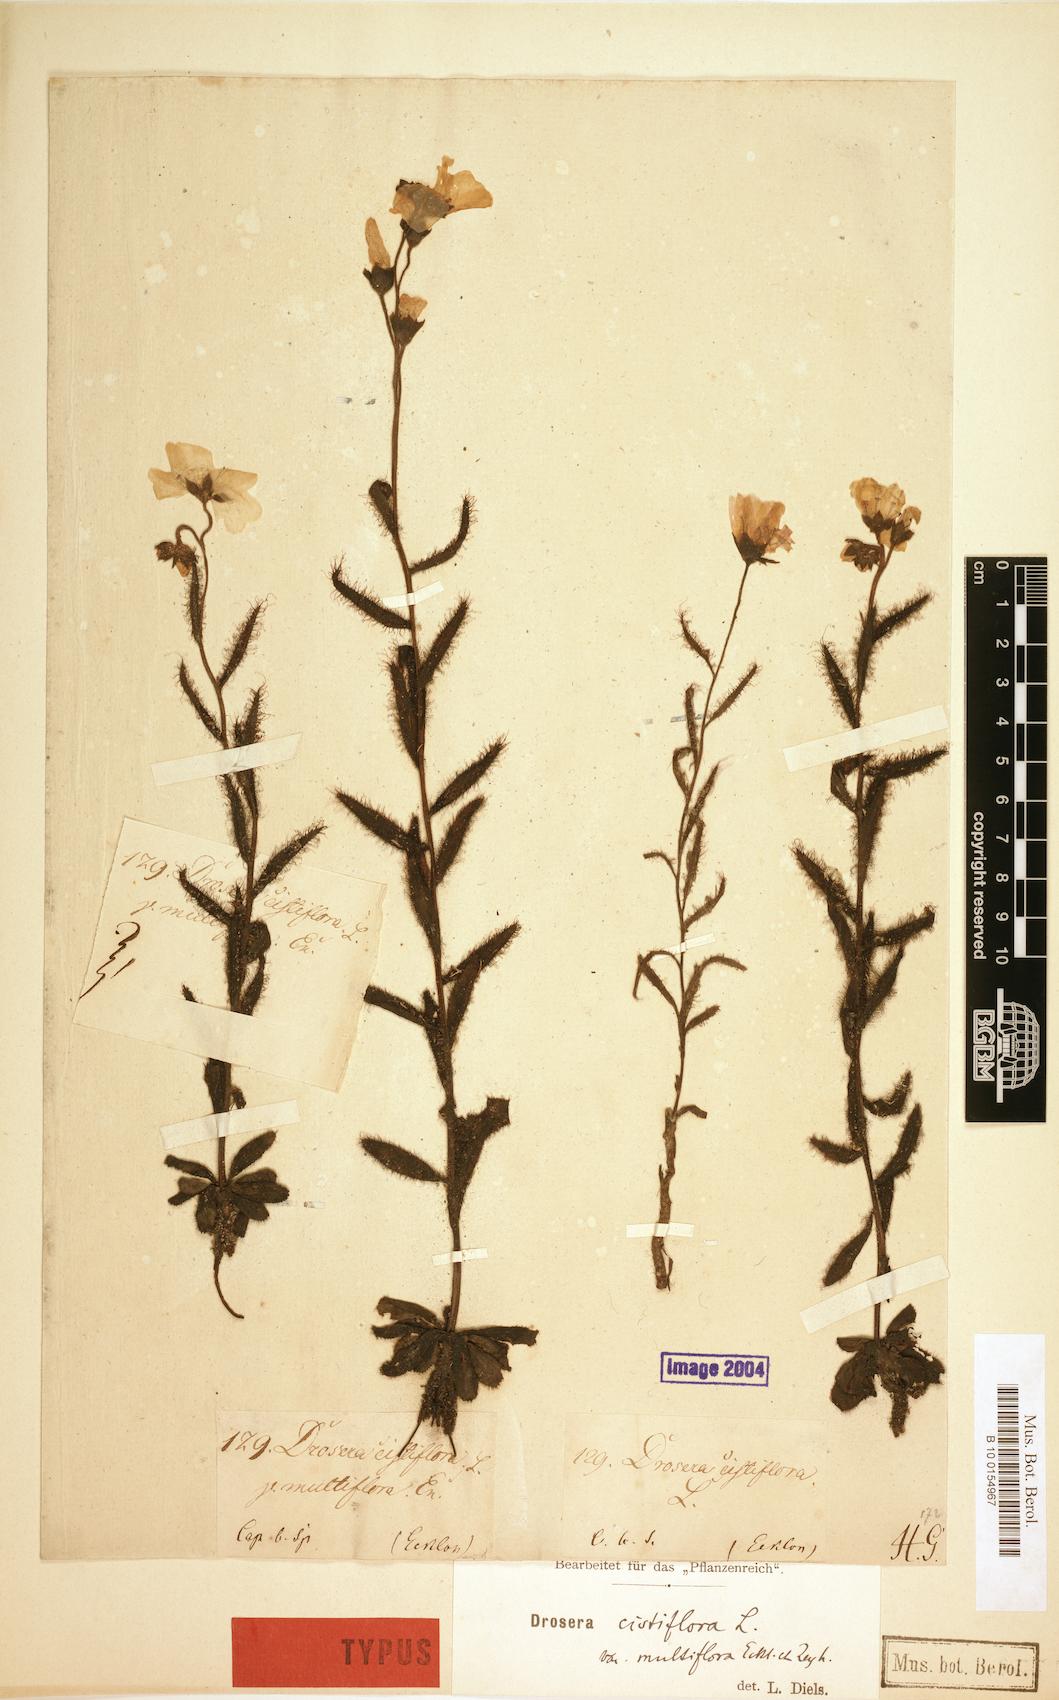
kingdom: Plantae
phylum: Tracheophyta
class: Magnoliopsida
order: Caryophyllales
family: Droseraceae
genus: Drosera
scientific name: Drosera cistiflora
